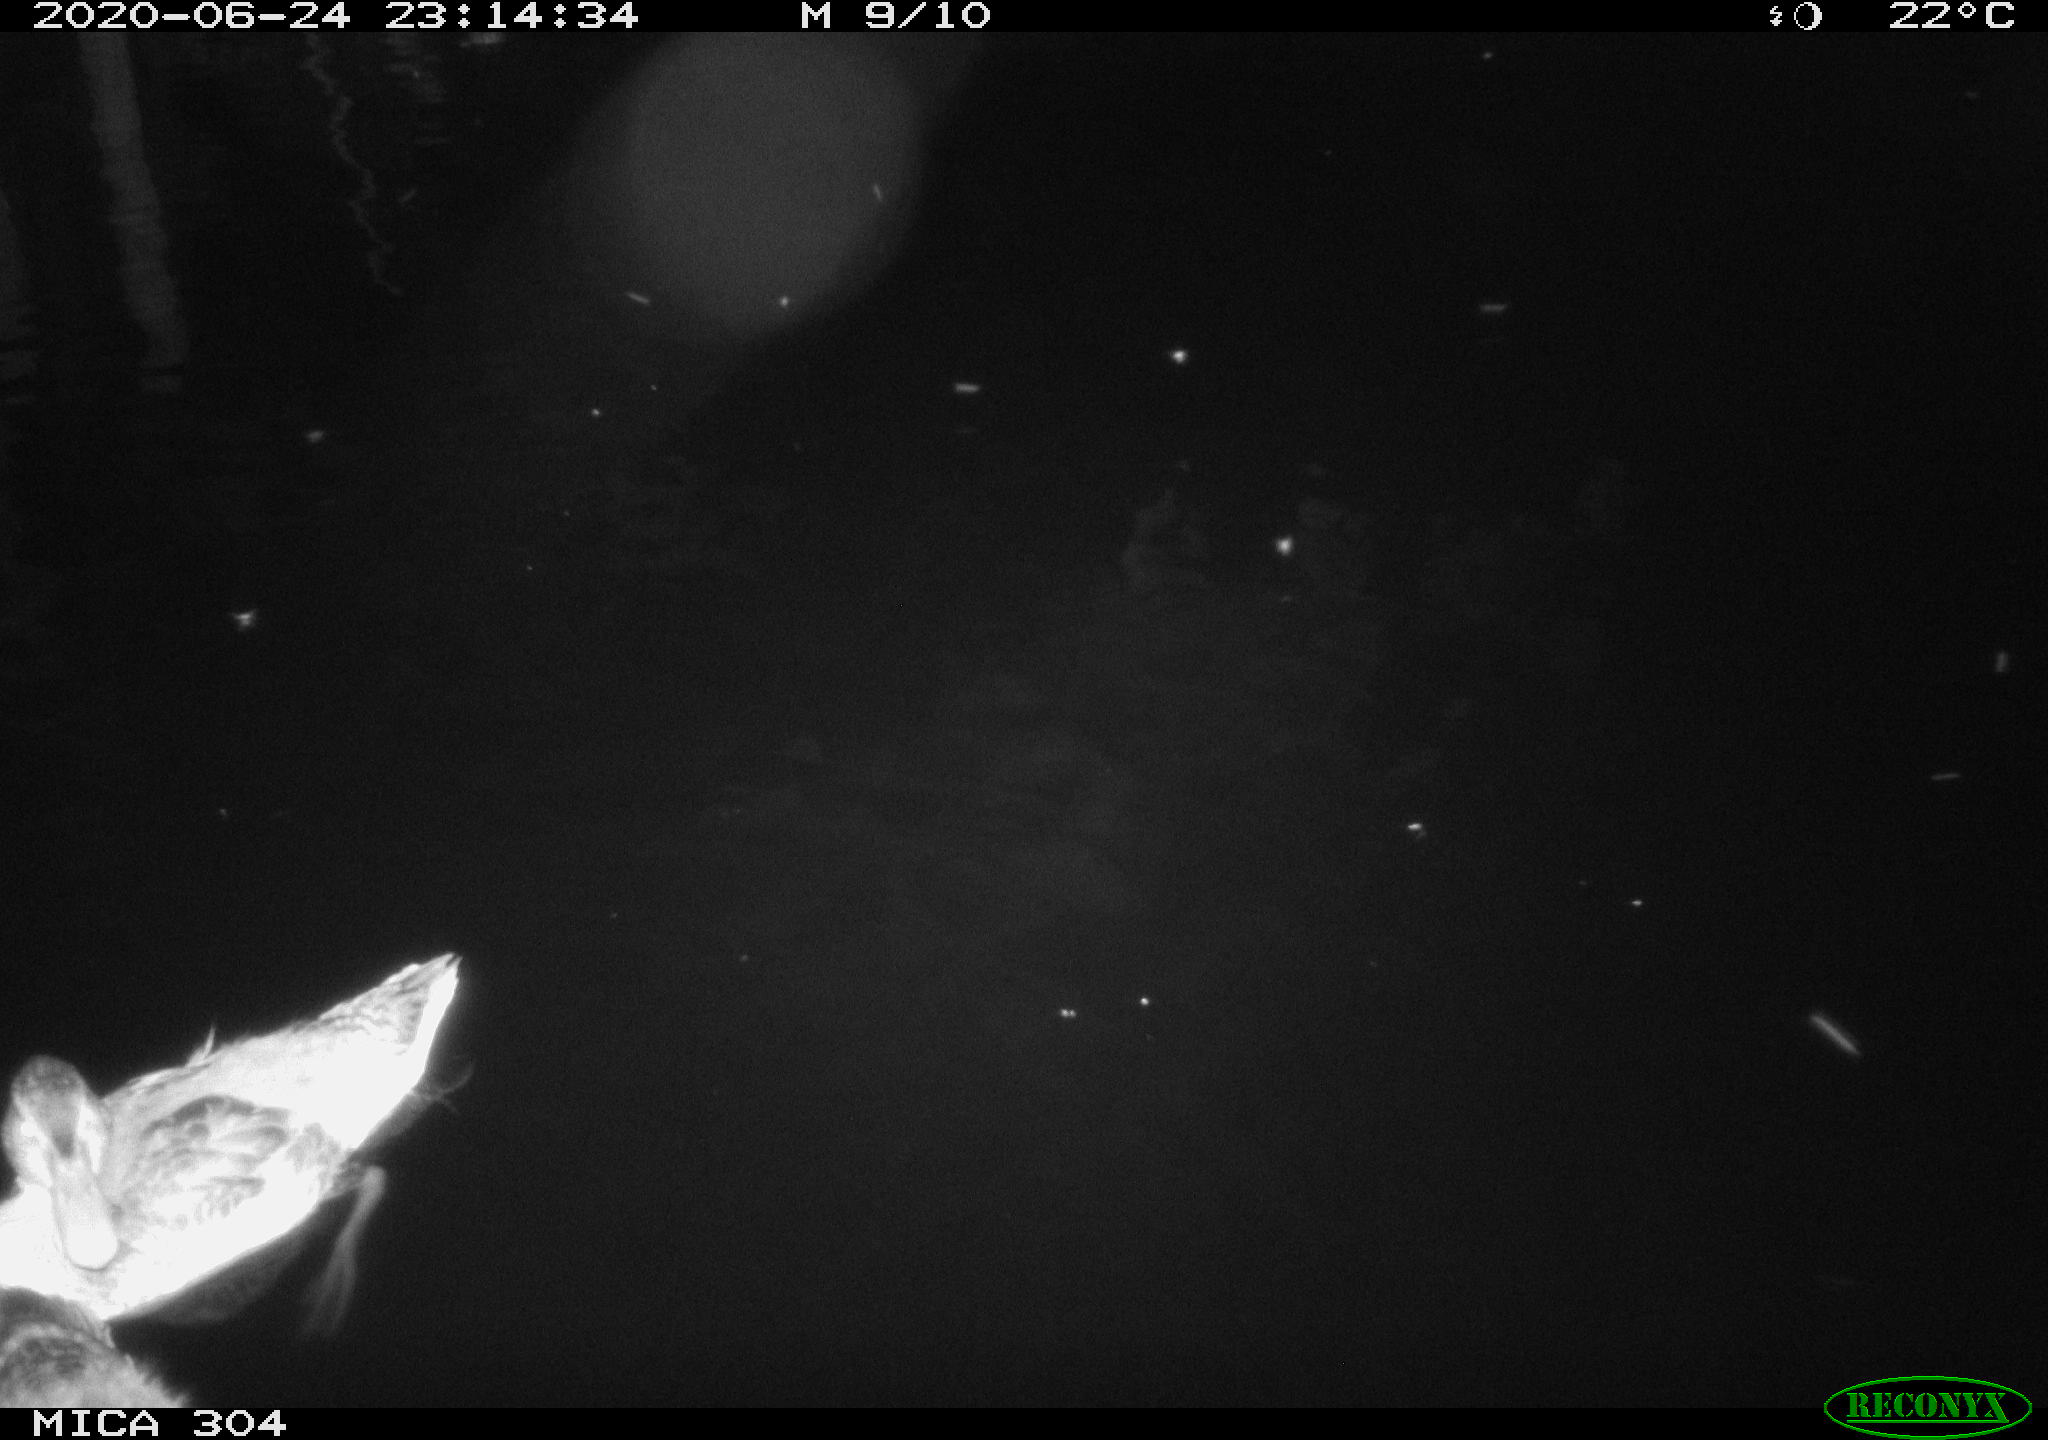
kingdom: Animalia
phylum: Chordata
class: Aves
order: Anseriformes
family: Anatidae
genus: Anas
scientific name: Anas platyrhynchos
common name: Mallard
